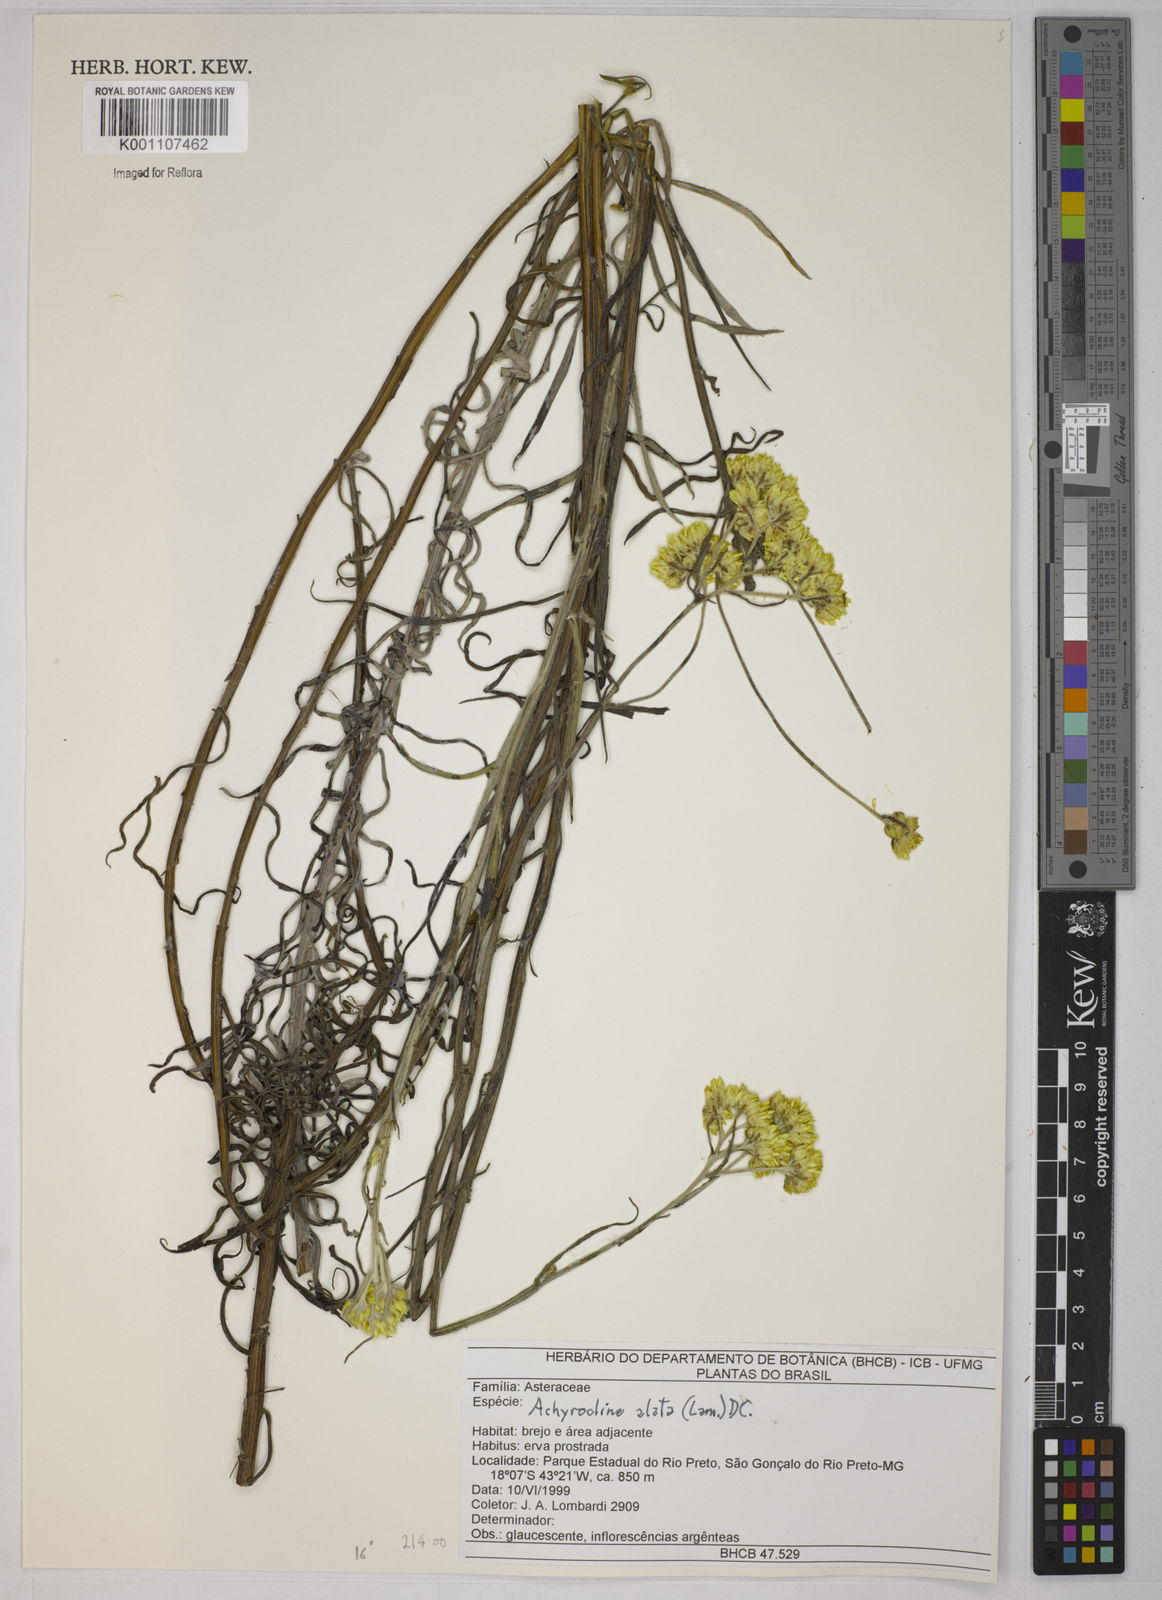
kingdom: Plantae
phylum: Tracheophyta
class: Magnoliopsida
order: Asterales
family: Asteraceae
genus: Achyrocline
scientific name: Achyrocline alata
